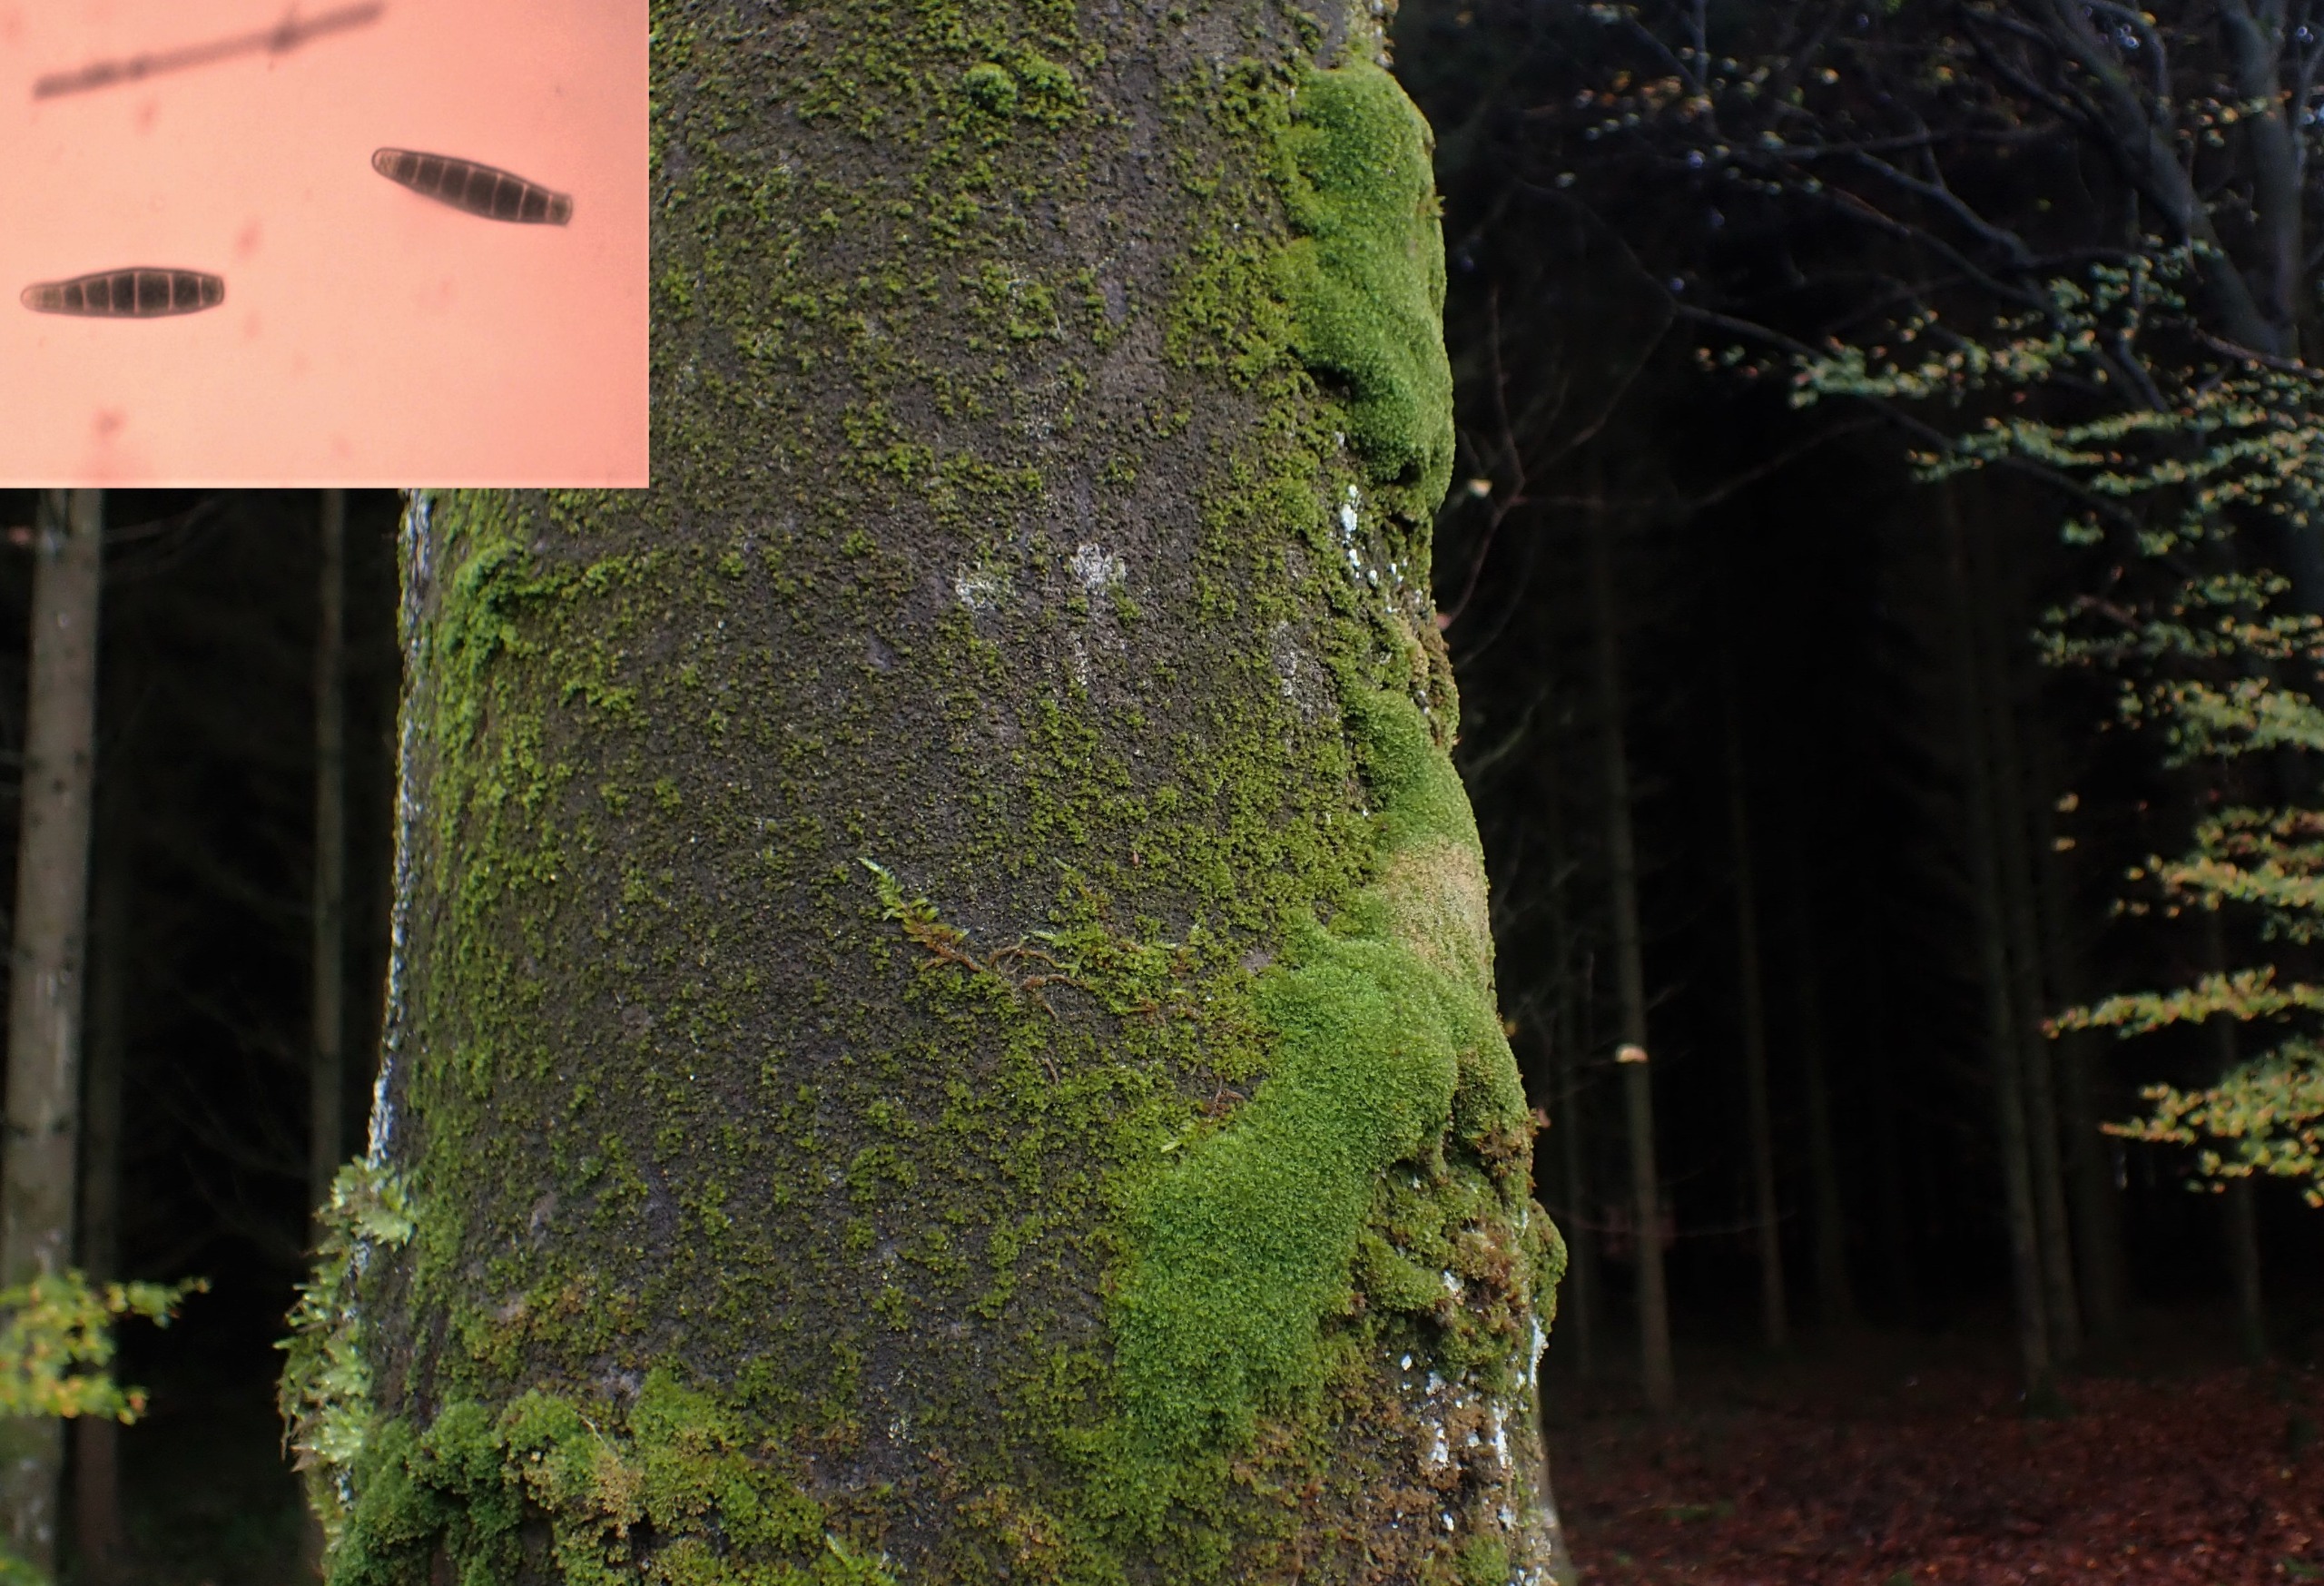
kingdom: Plantae
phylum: Bryophyta
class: Bryopsida
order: Orthotrichales
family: Orthotrichaceae
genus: Zygodon
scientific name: Zygodon conoideus
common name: Tand-køllemos
